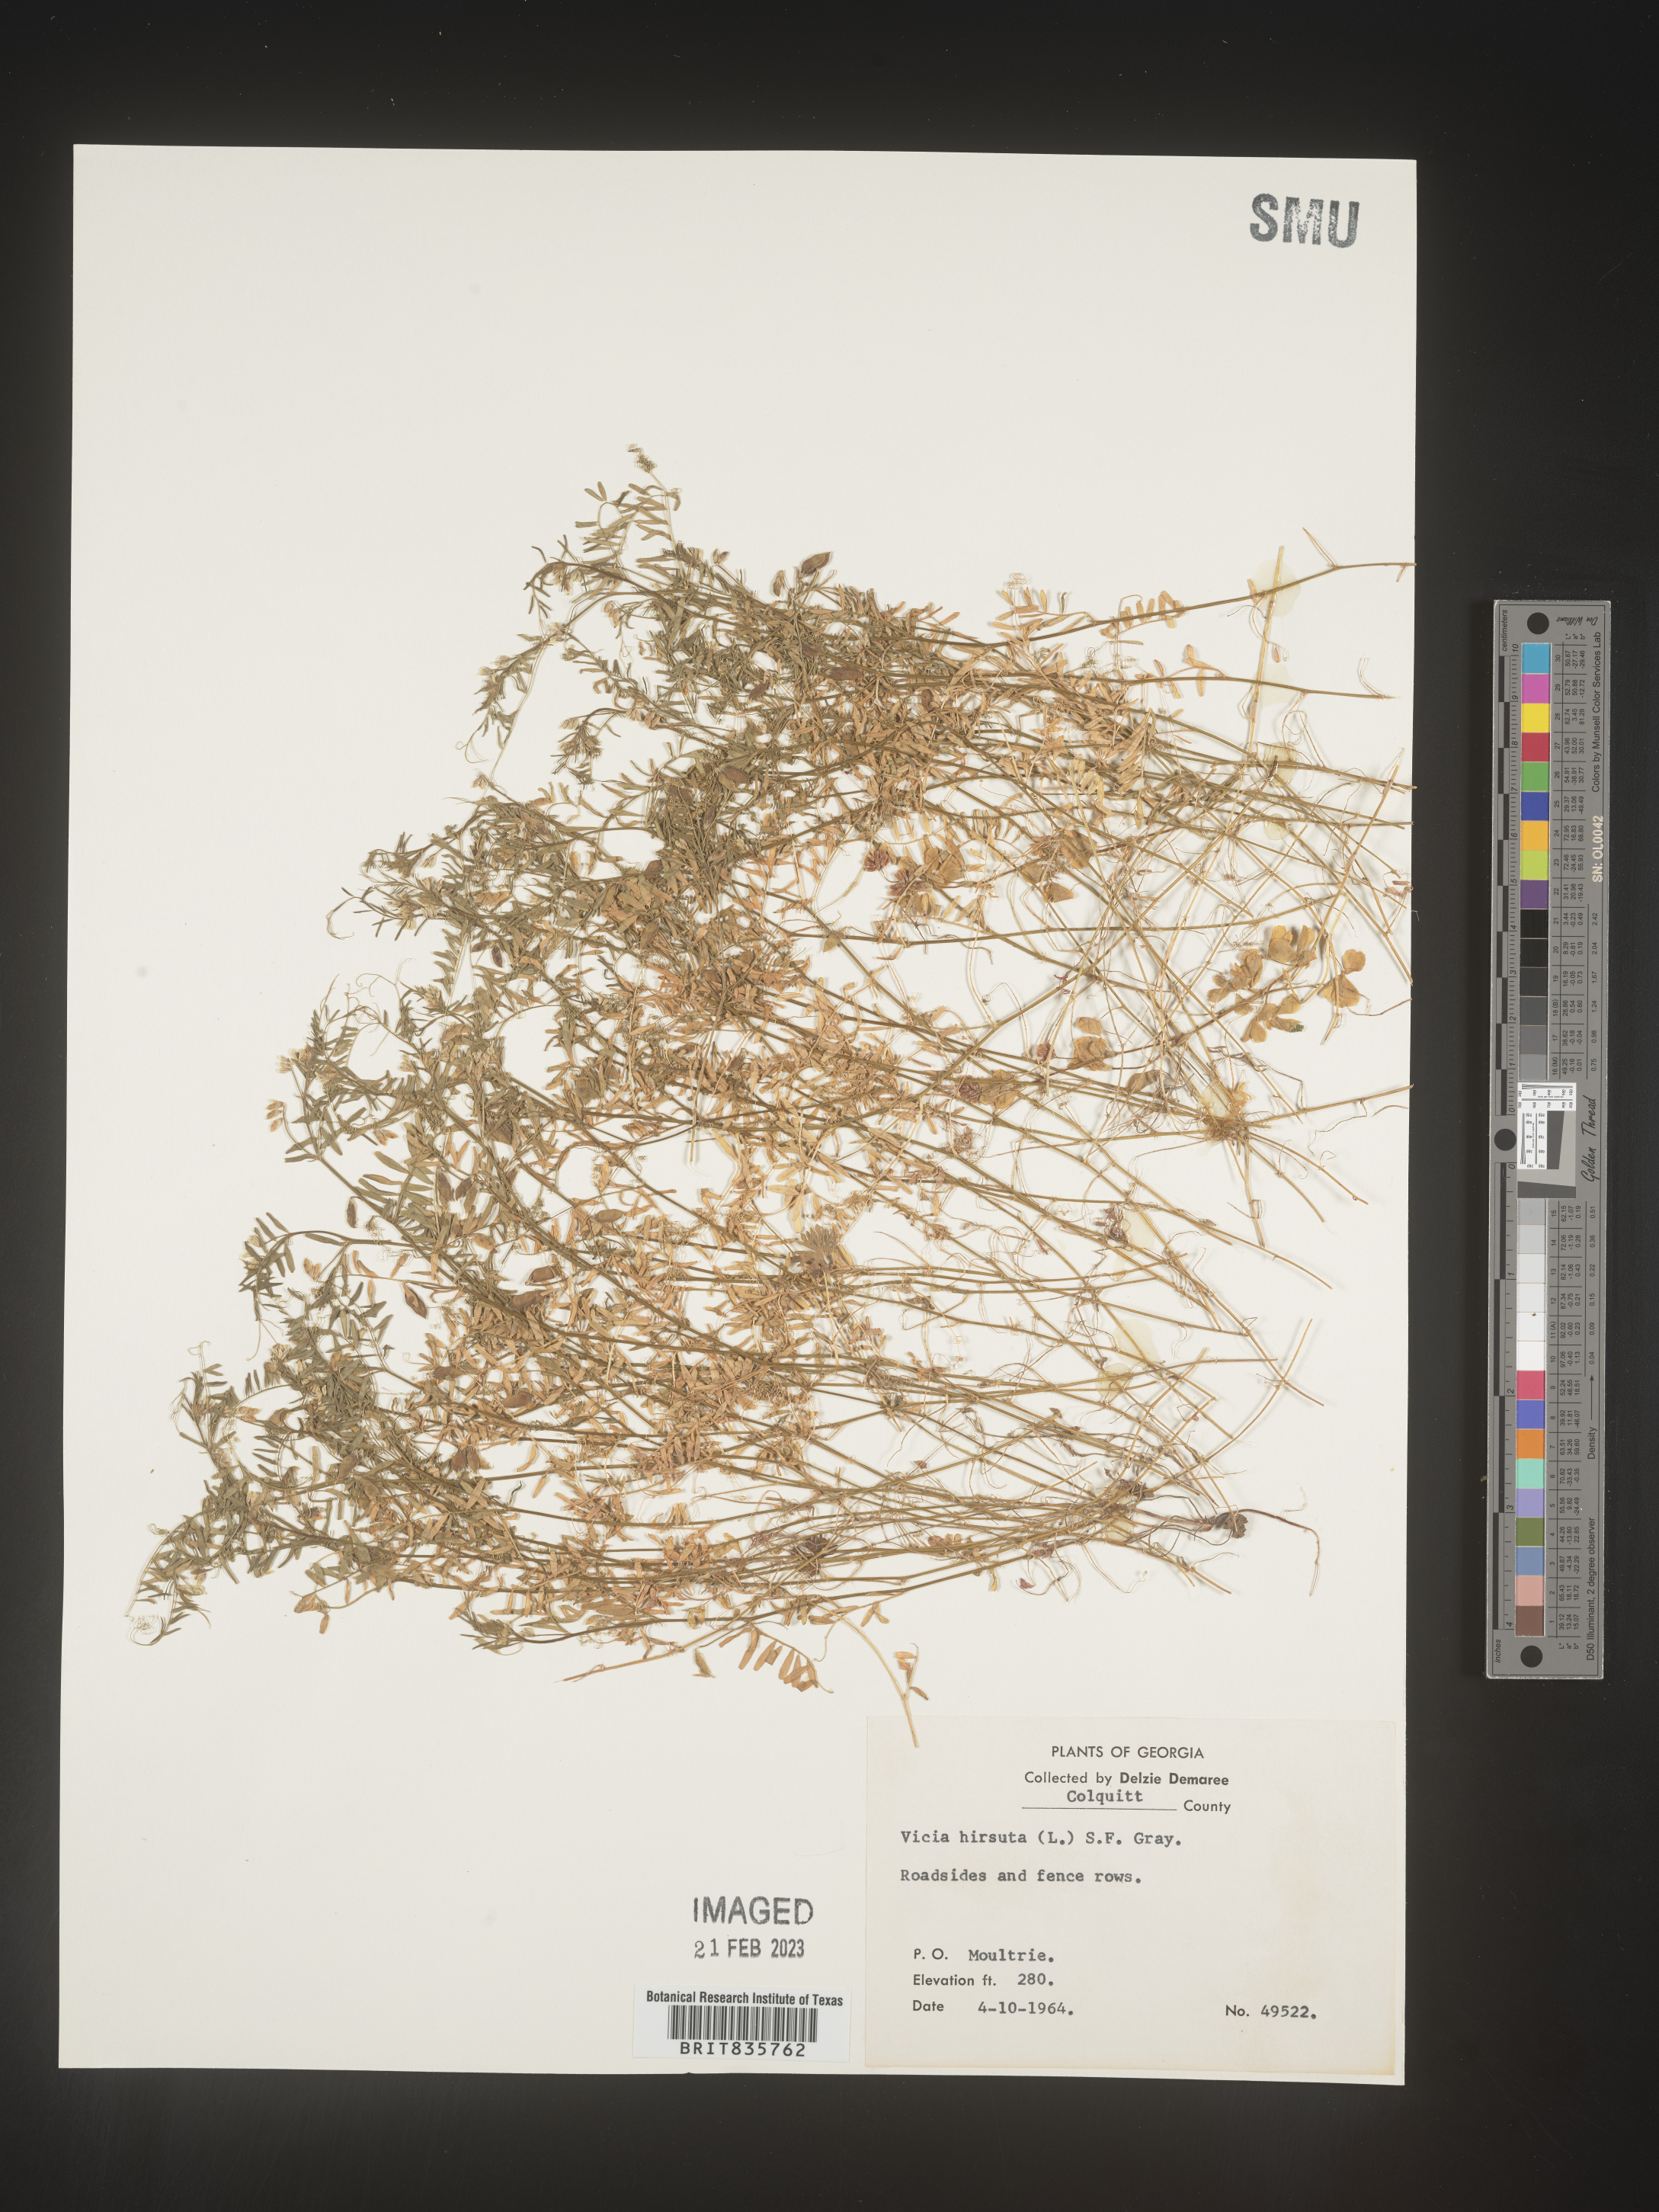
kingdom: Plantae
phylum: Tracheophyta
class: Magnoliopsida
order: Fabales
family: Fabaceae
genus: Vicia
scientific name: Vicia
